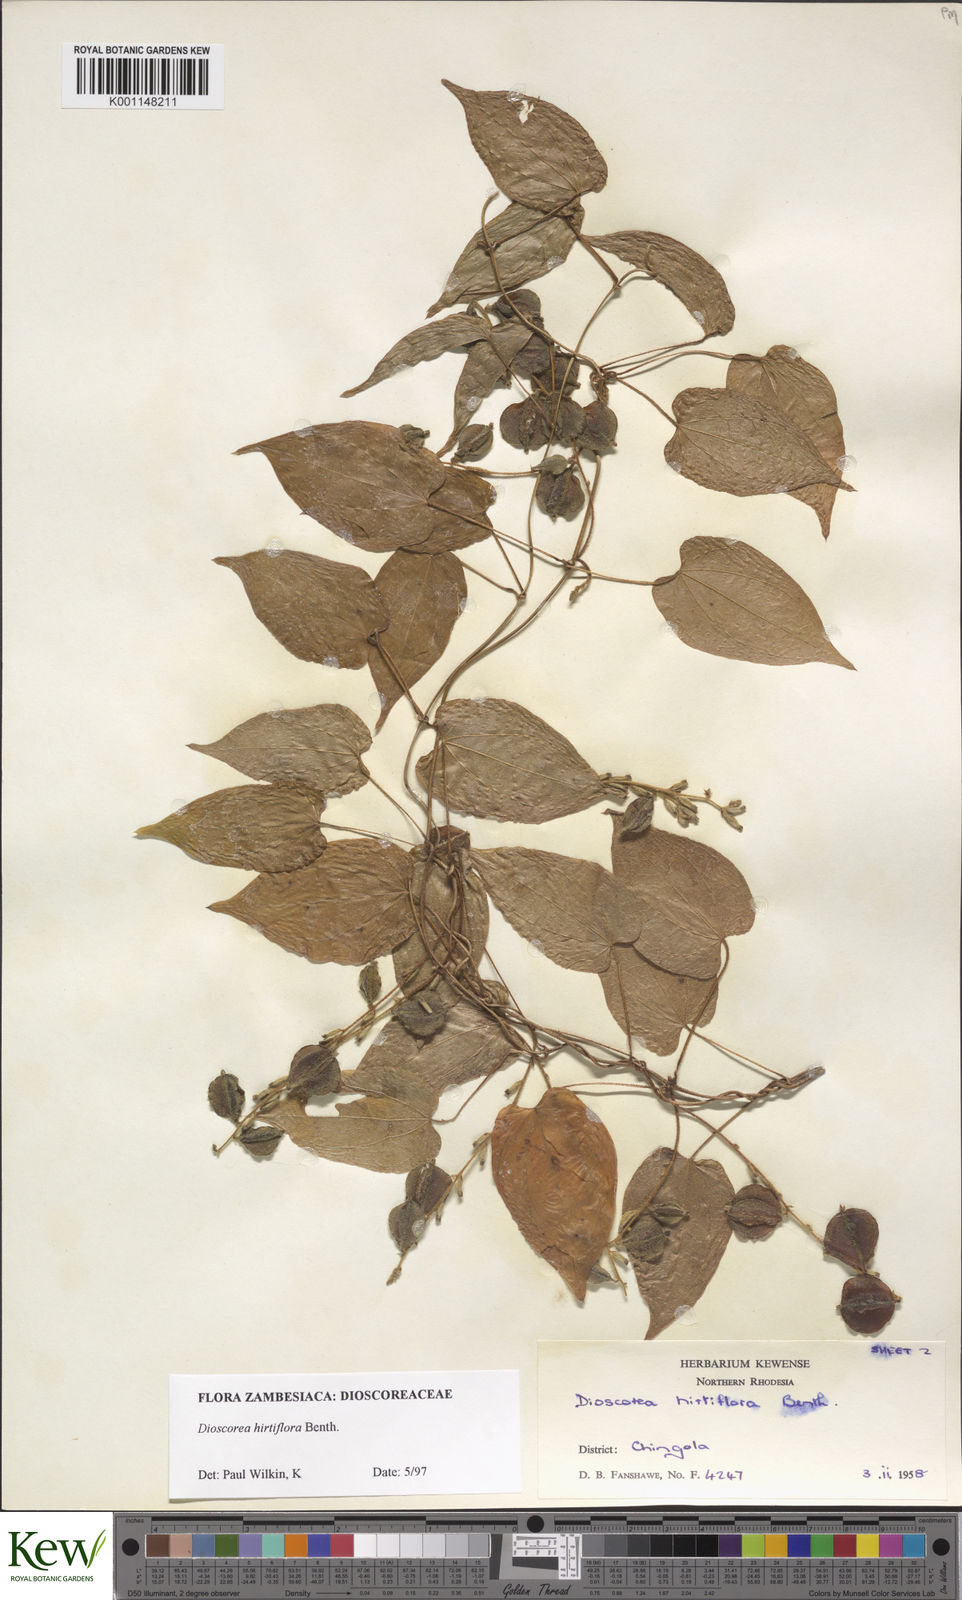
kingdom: Plantae
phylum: Tracheophyta
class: Liliopsida
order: Dioscoreales
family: Dioscoreaceae
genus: Dioscorea
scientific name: Dioscorea hirtiflora
